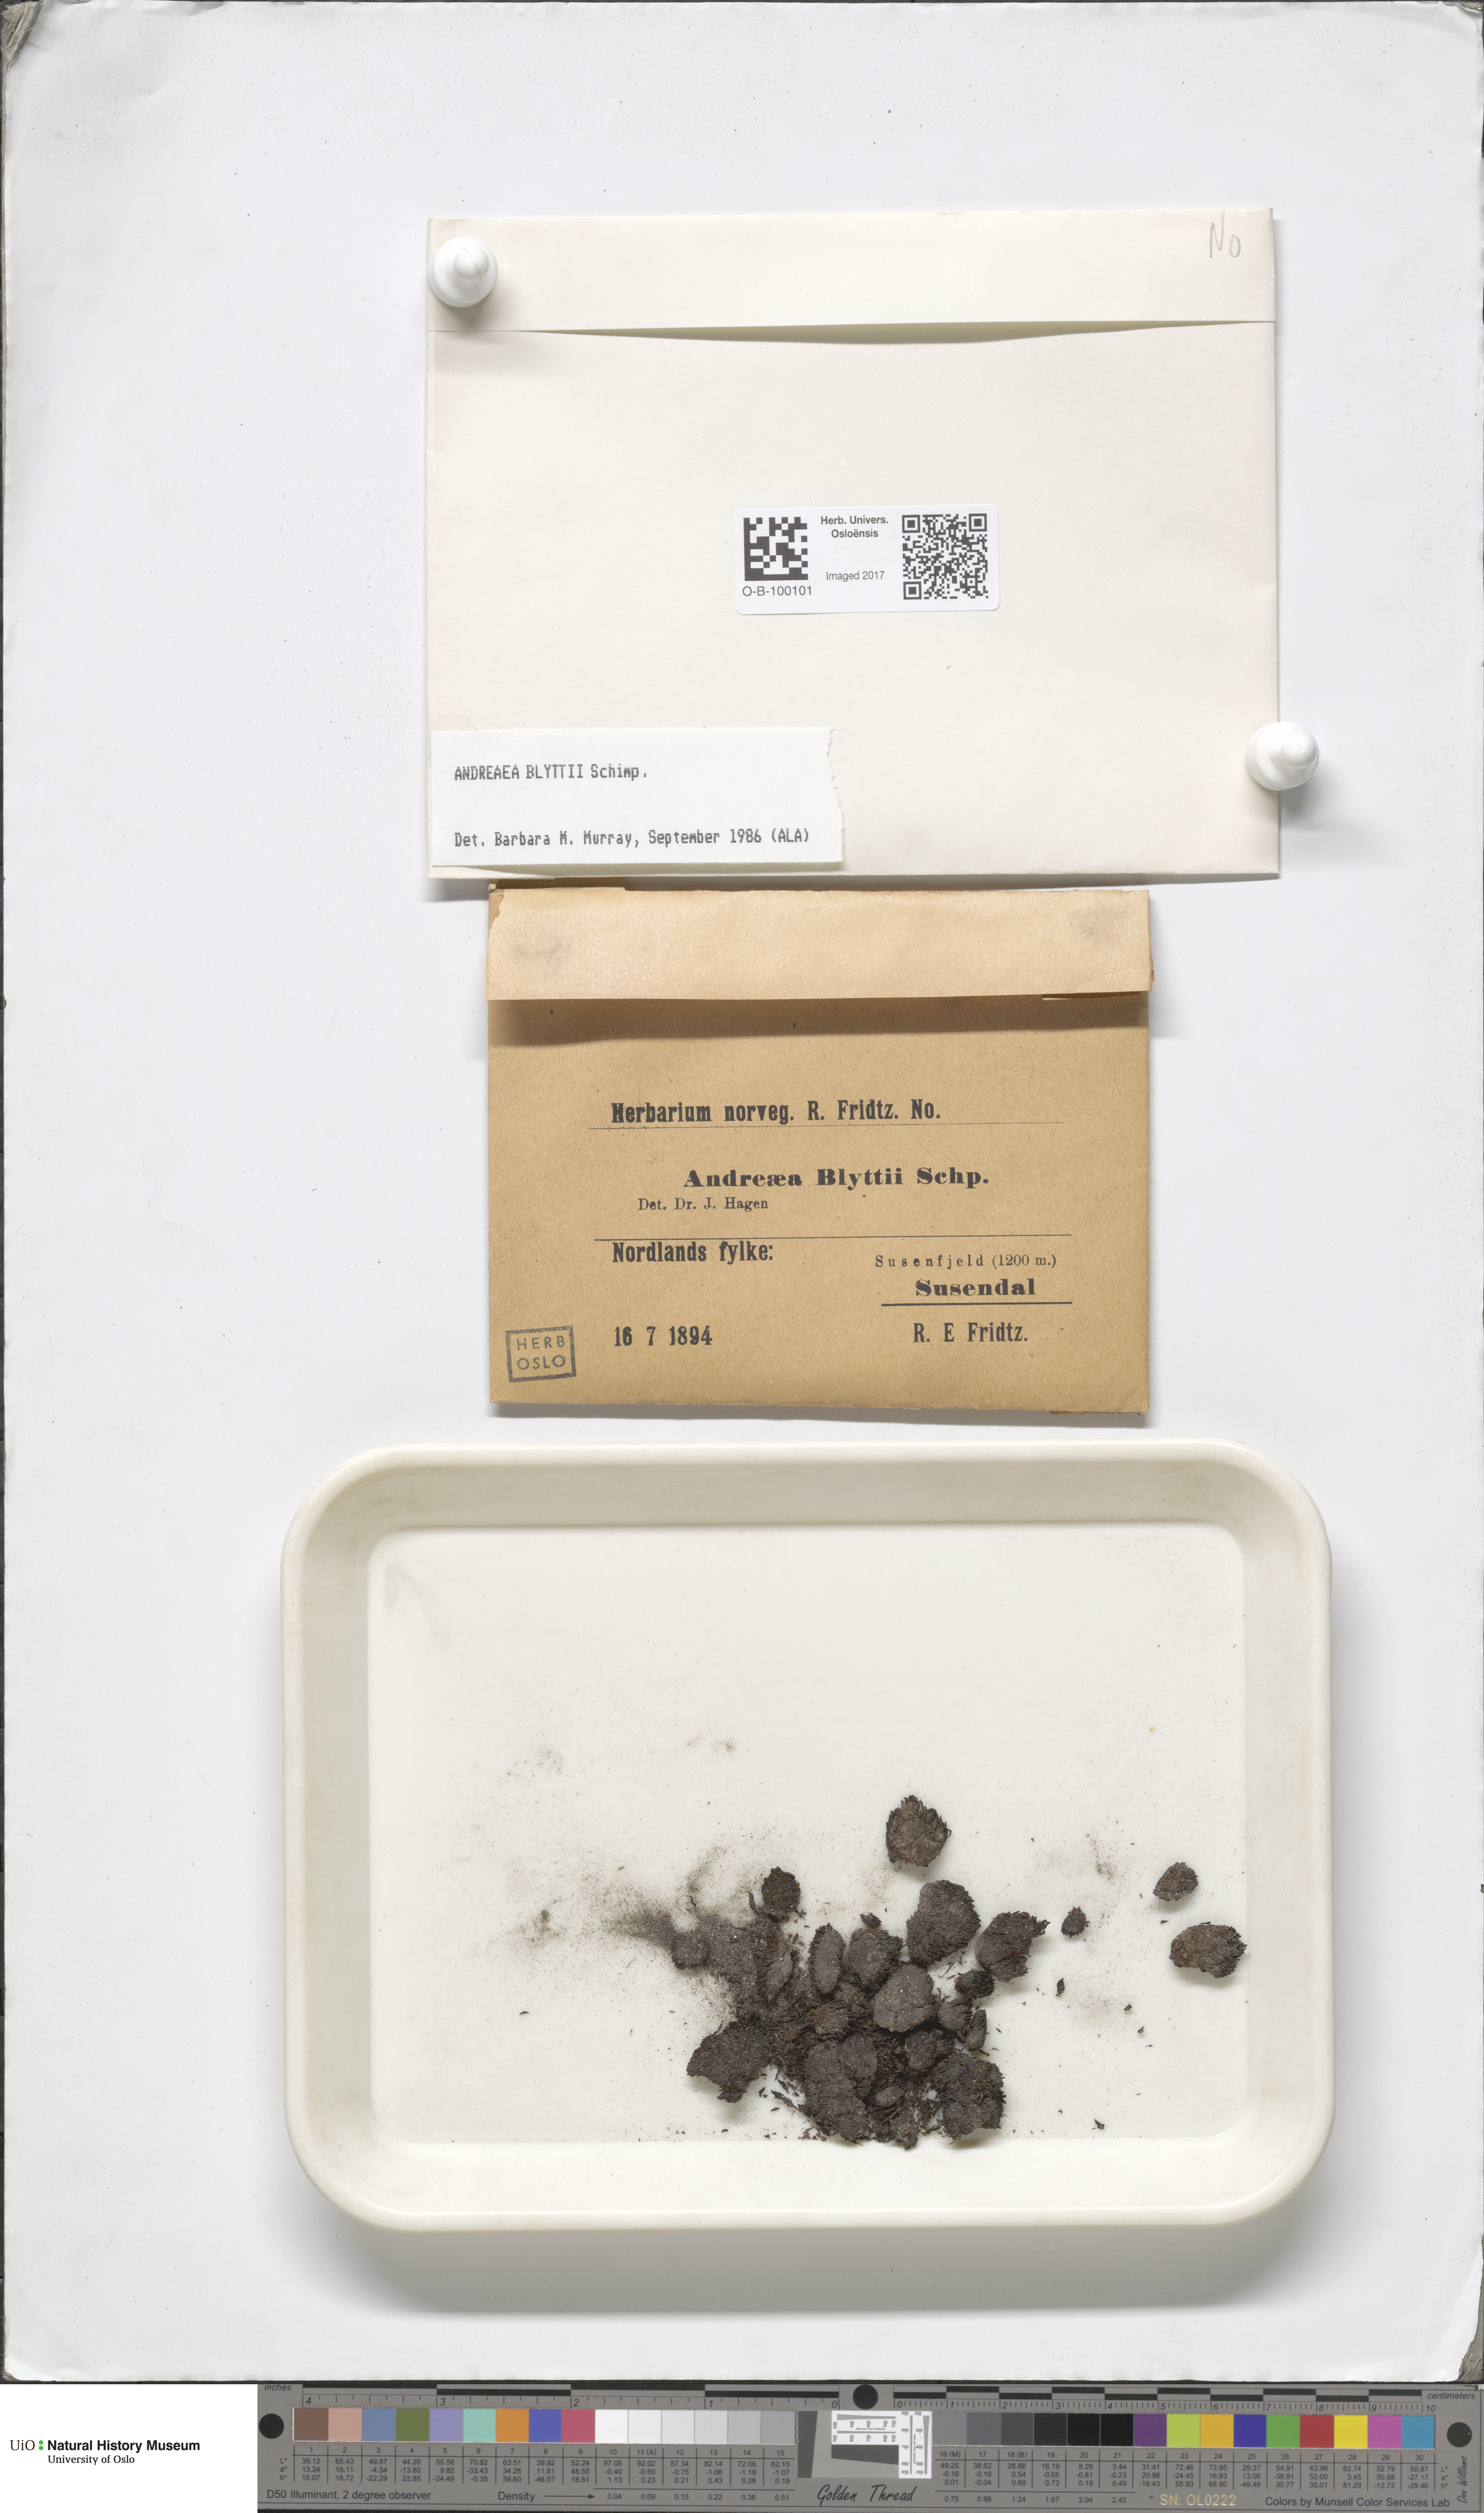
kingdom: Plantae
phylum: Bryophyta
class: Andreaeopsida
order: Andreaeales
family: Andreaeaceae
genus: Andreaea
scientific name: Andreaea blyttii
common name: Blytt's rock moss
